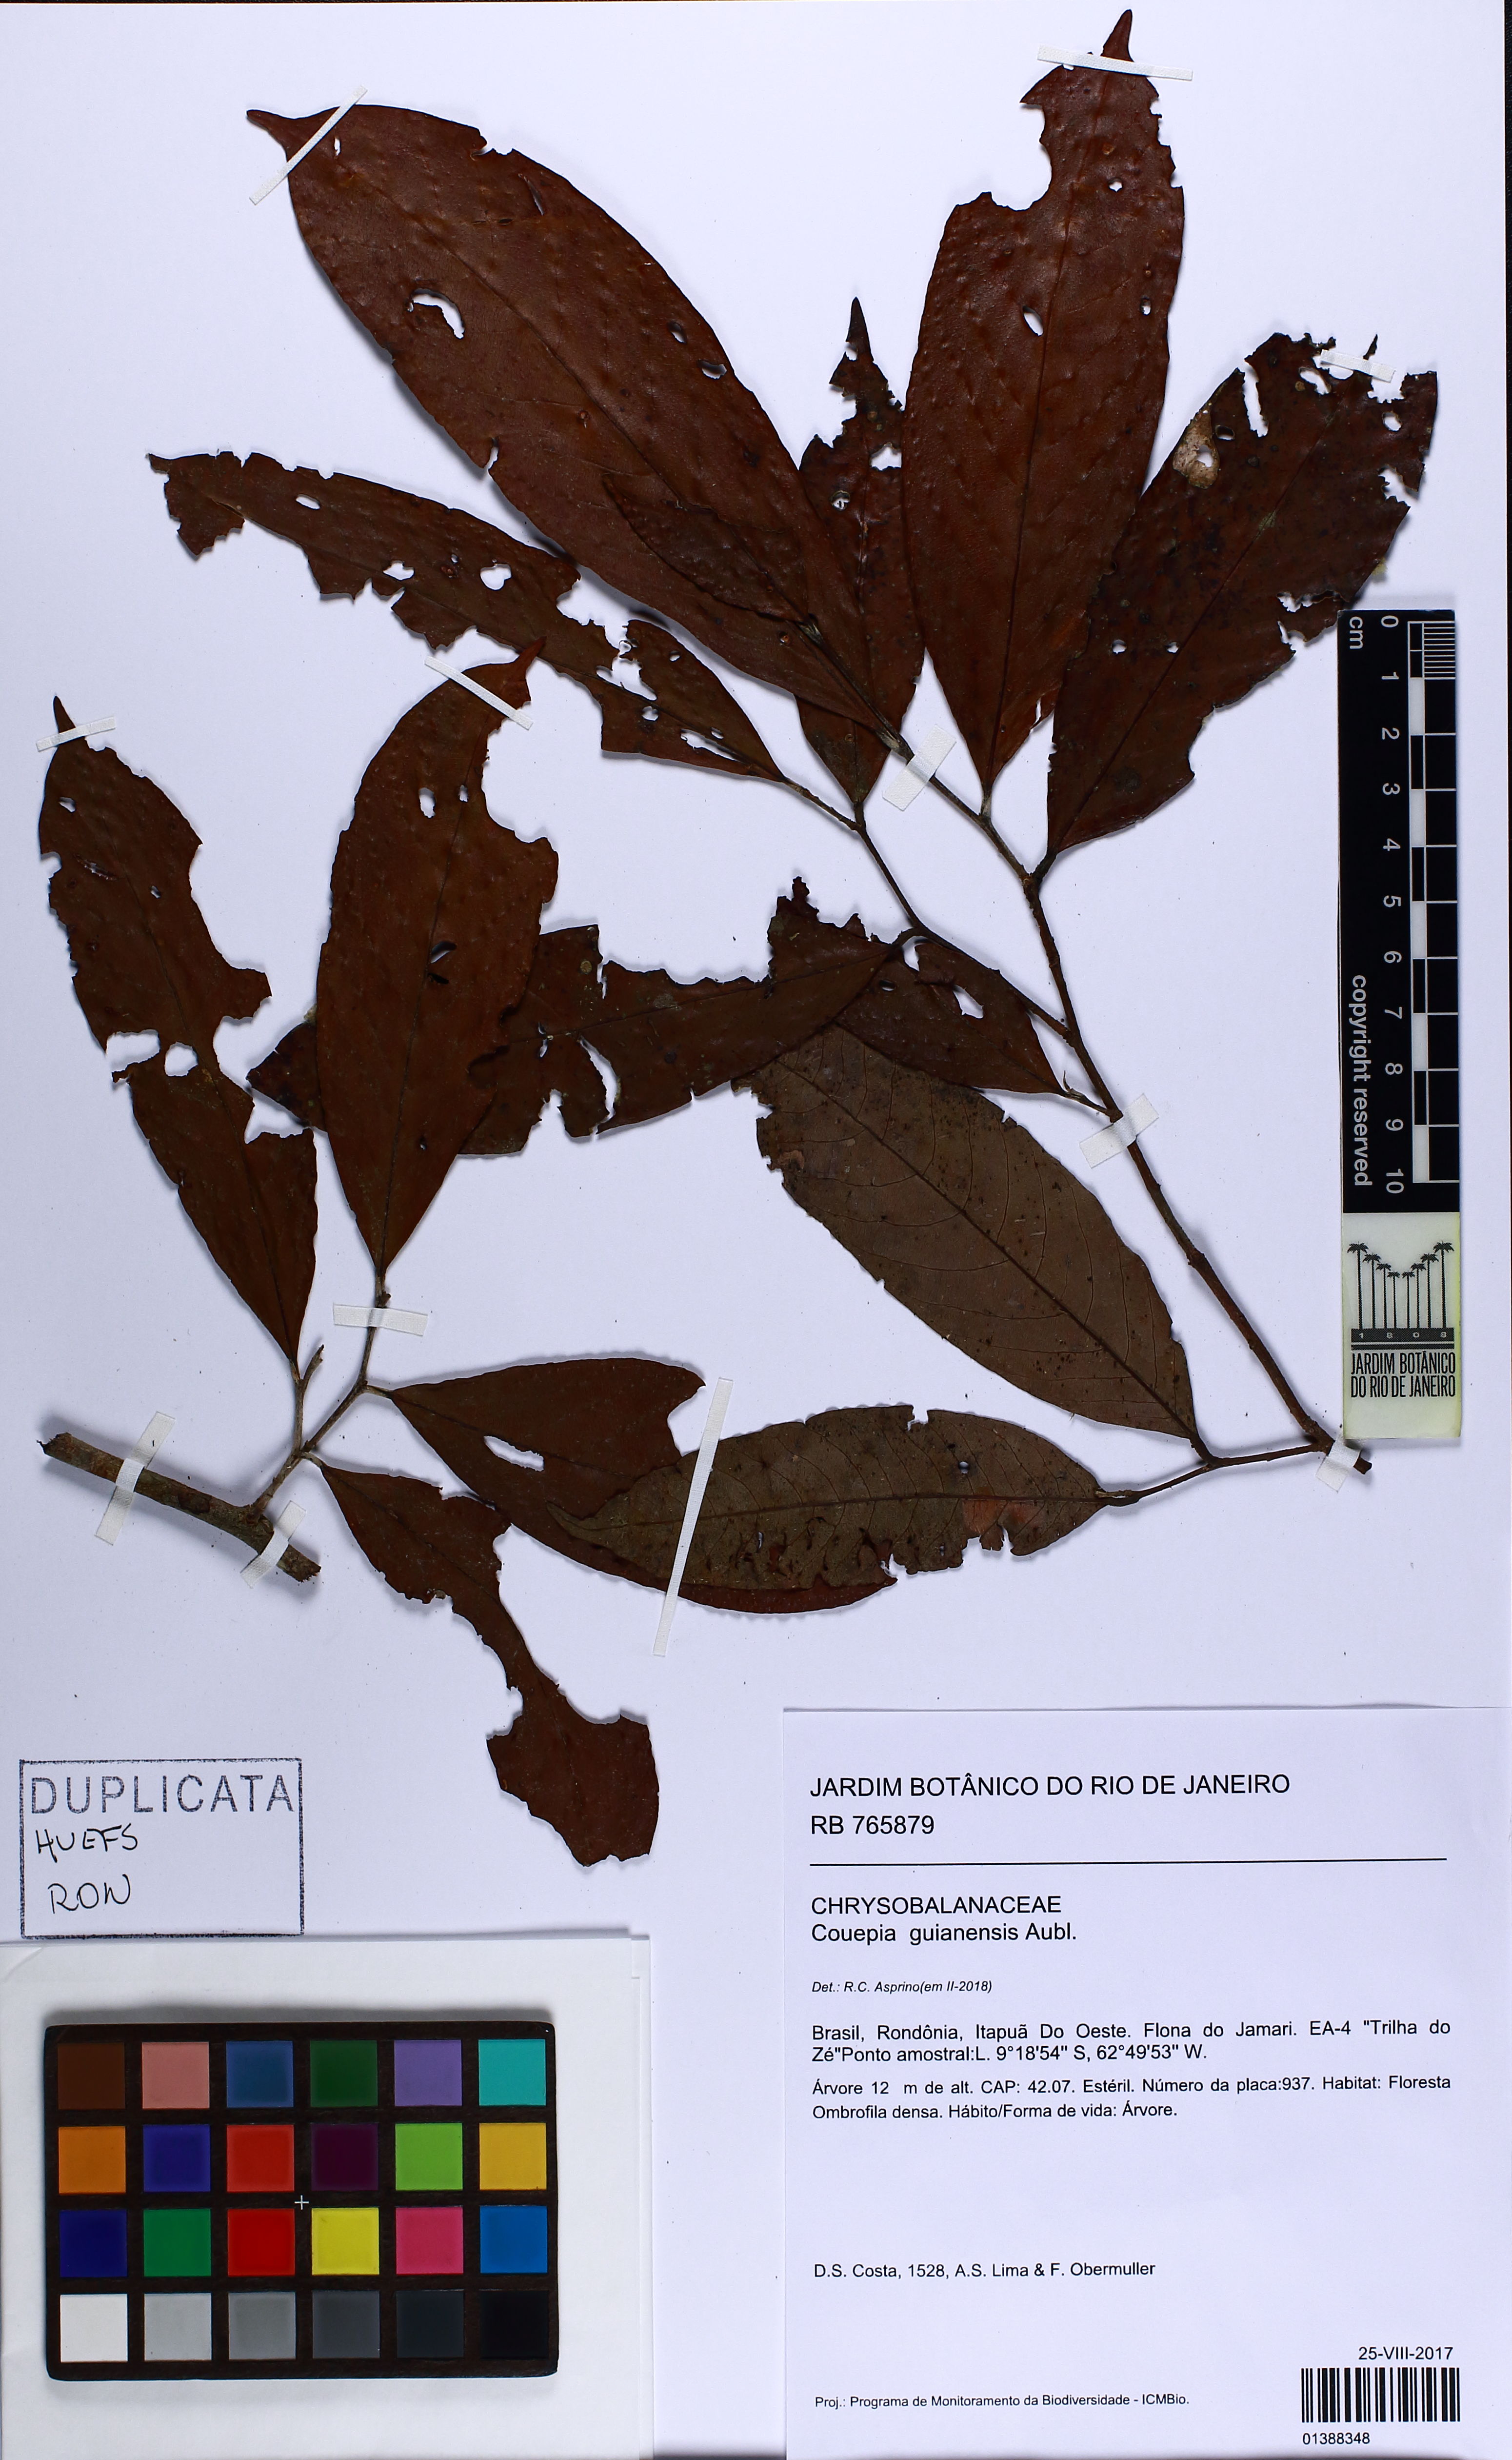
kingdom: Plantae
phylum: Tracheophyta
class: Magnoliopsida
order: Malpighiales
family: Chrysobalanaceae
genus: Couepia
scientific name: Couepia guianensis
